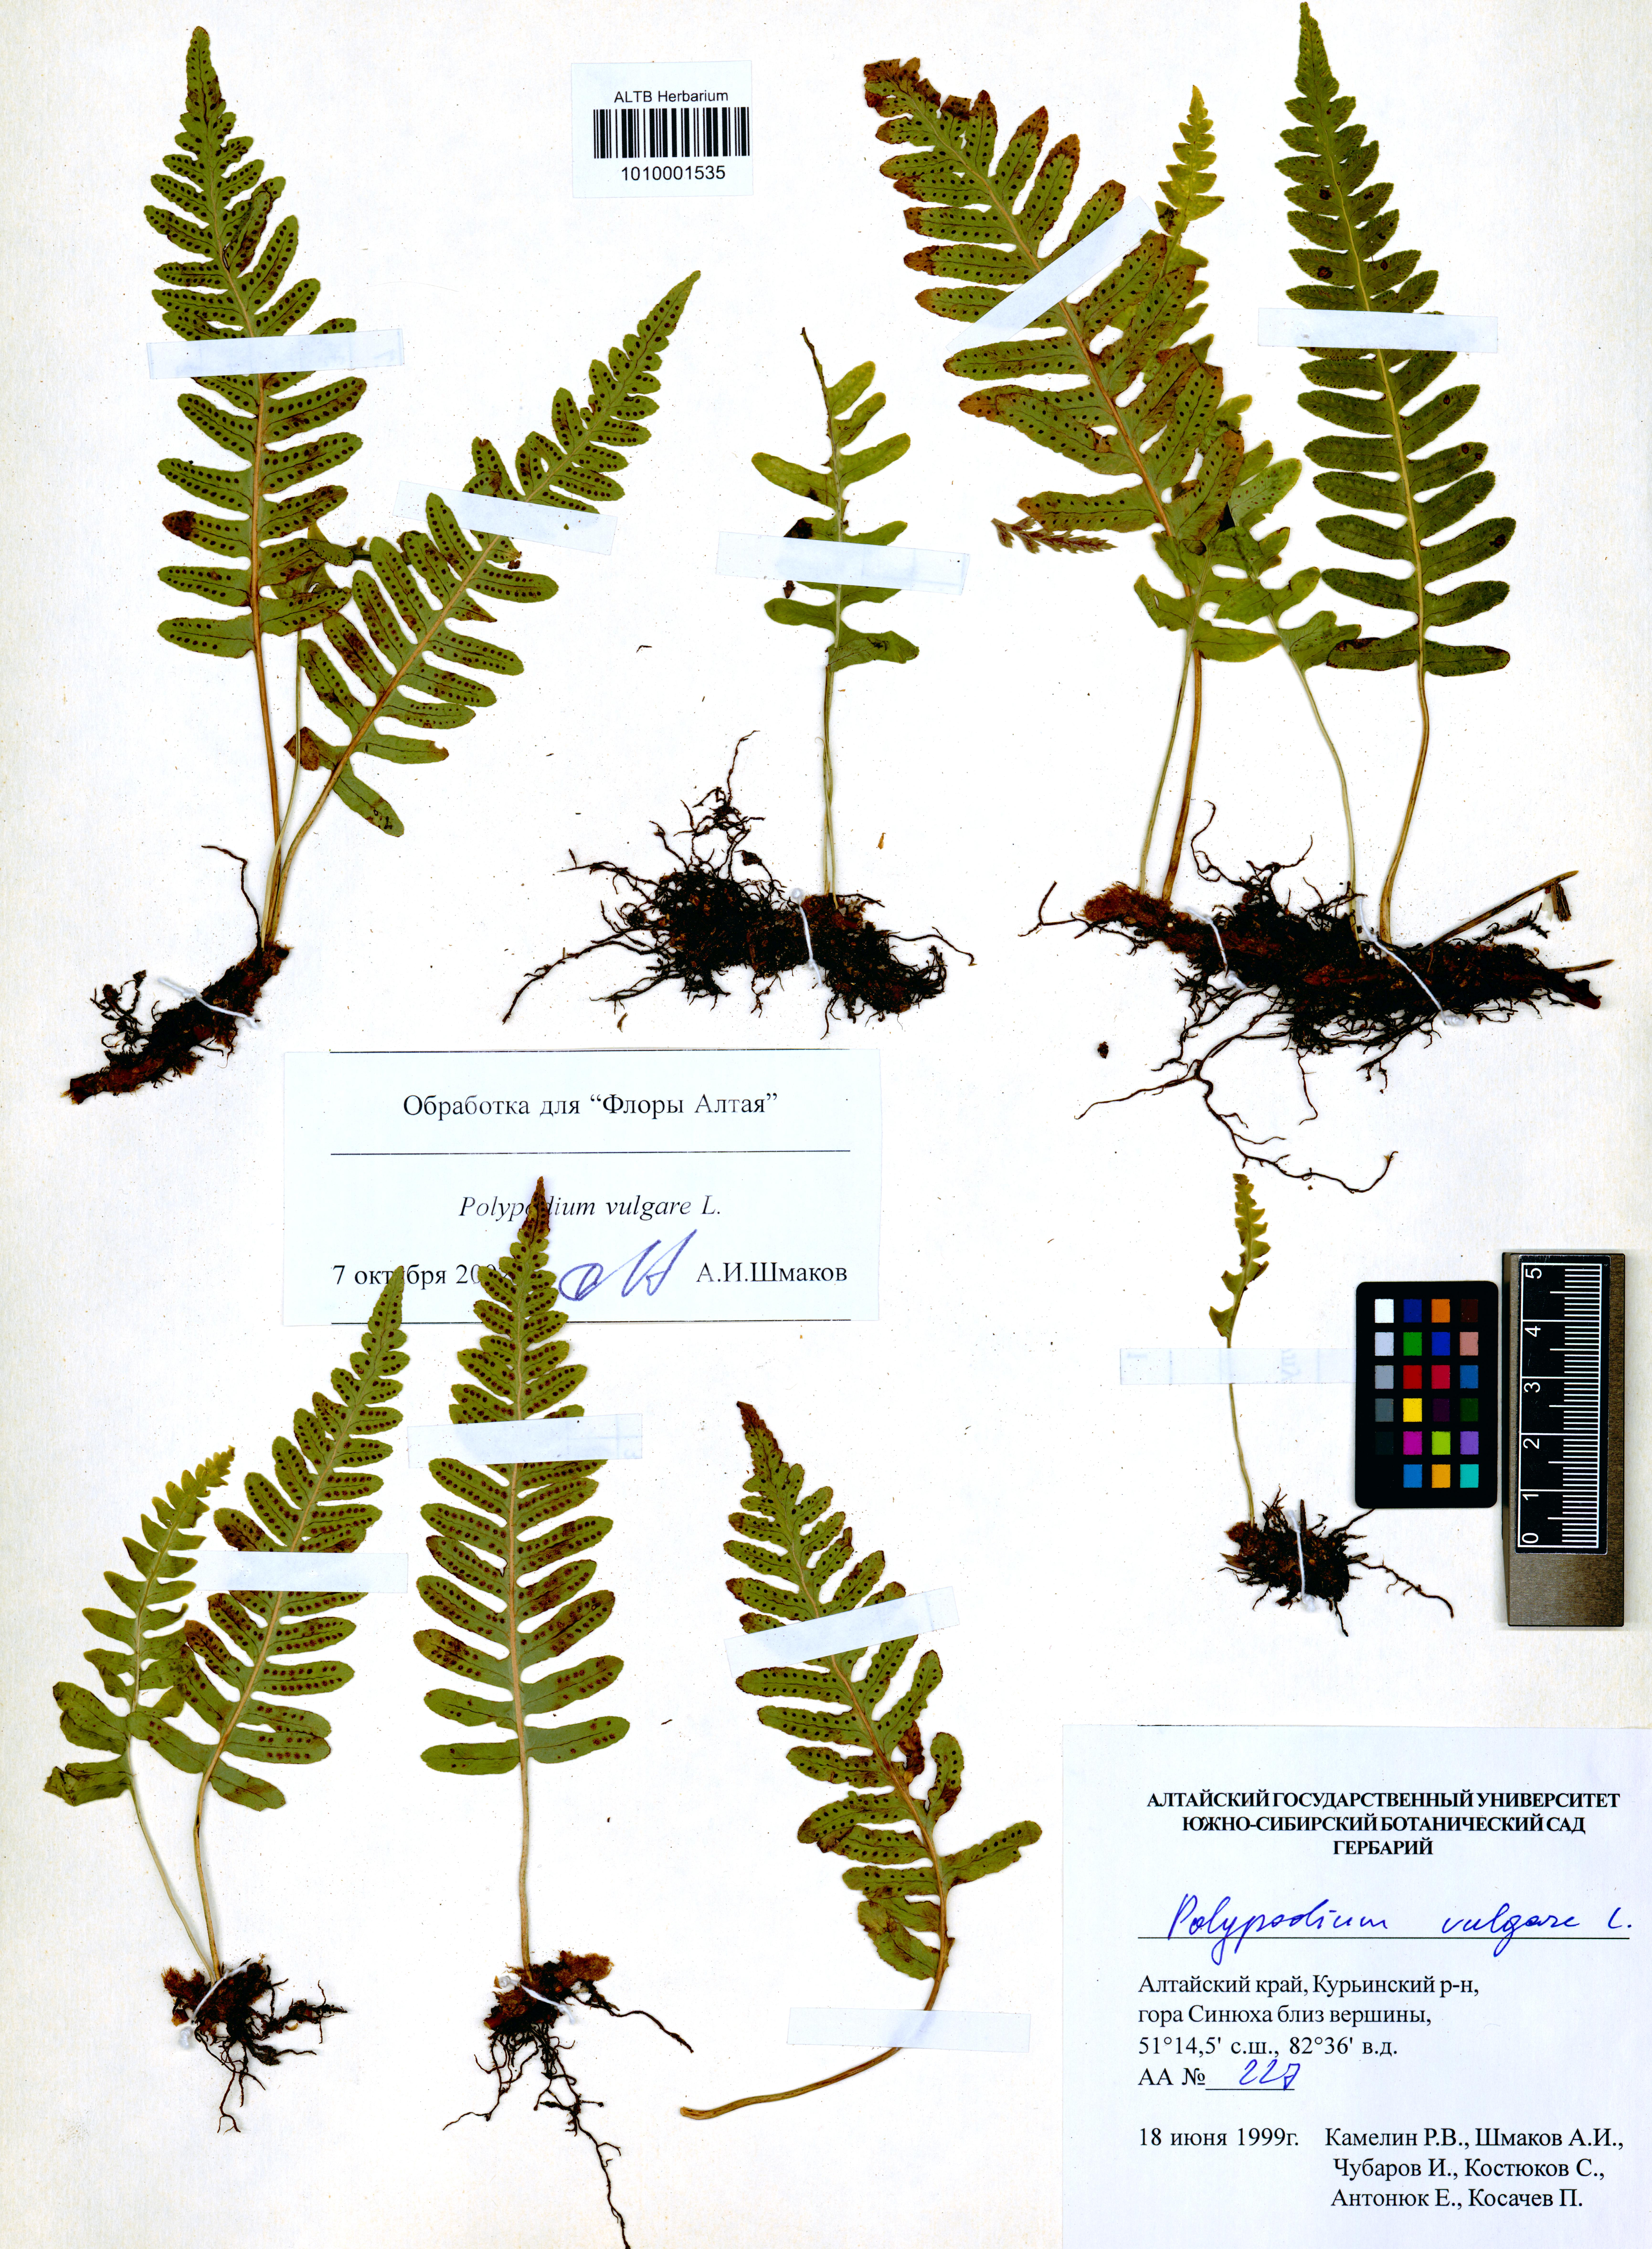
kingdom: Plantae
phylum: Tracheophyta
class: Polypodiopsida
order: Polypodiales
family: Polypodiaceae
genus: Polypodium
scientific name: Polypodium vulgare
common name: Common polypody
